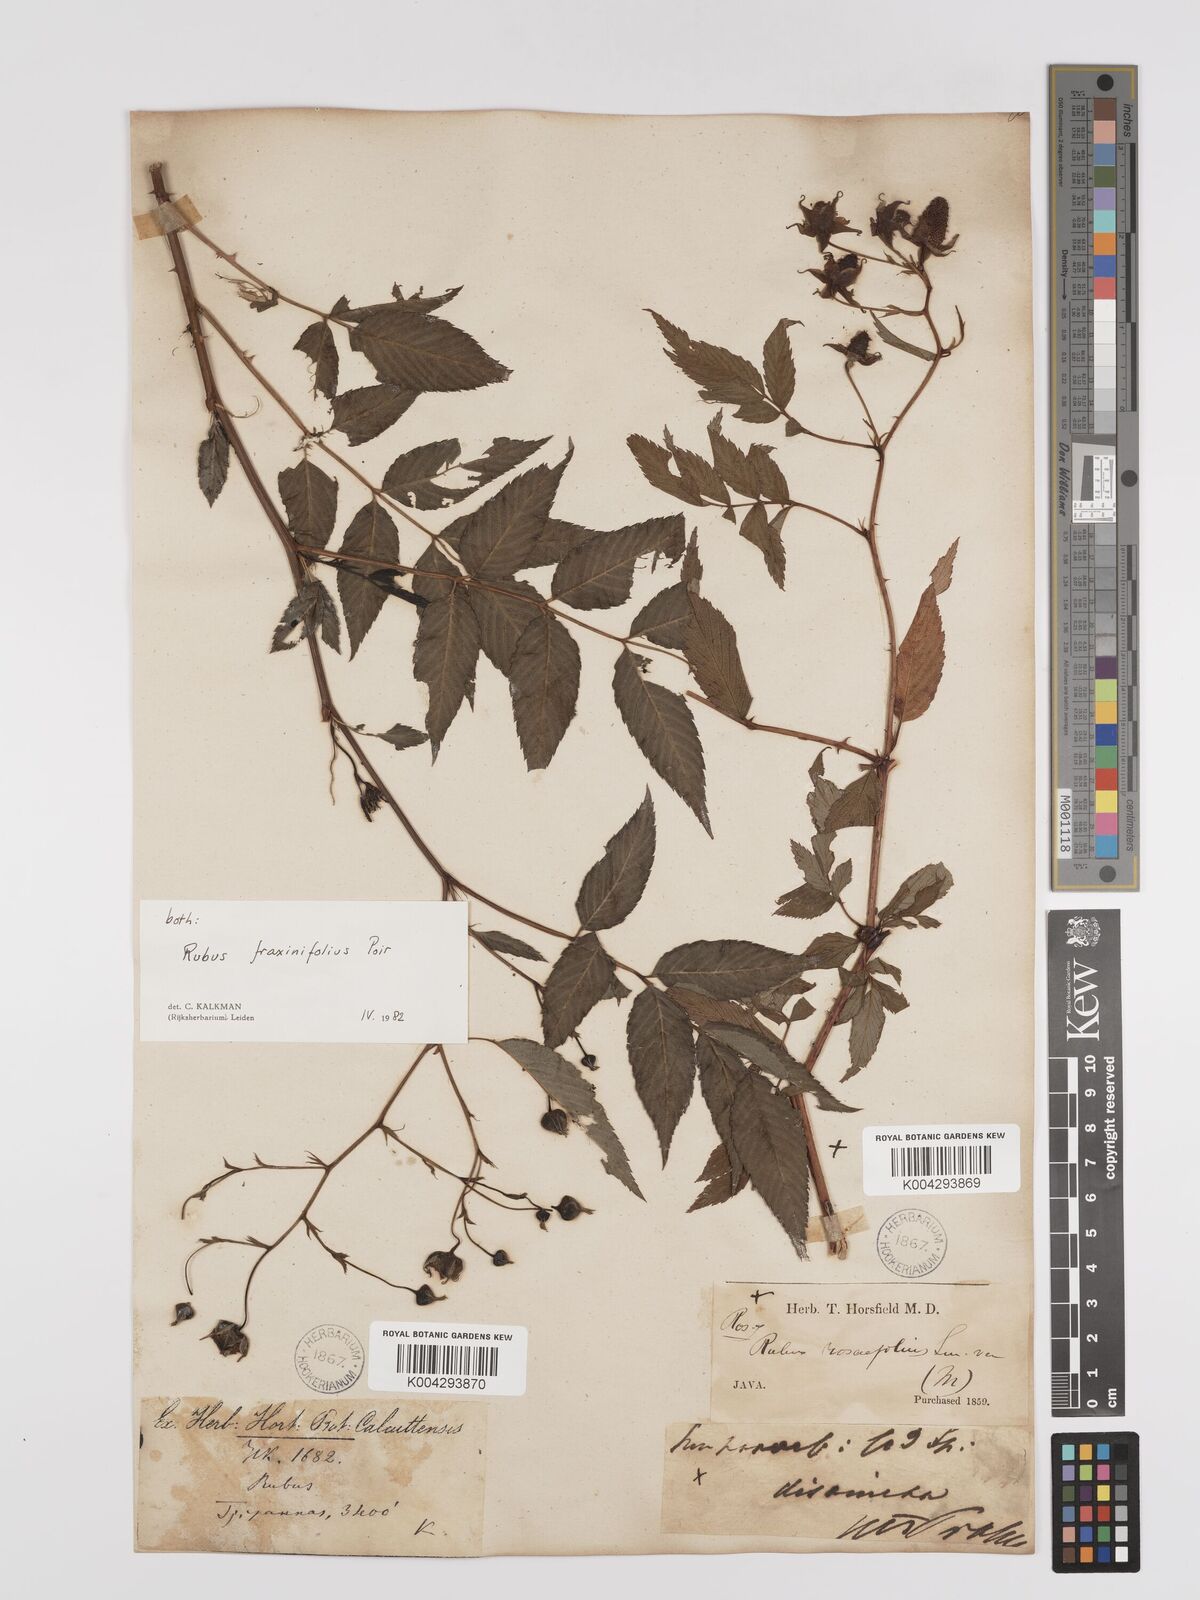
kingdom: Plantae
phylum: Tracheophyta
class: Magnoliopsida
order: Rosales
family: Rosaceae
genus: Rubus
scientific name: Rubus fraxinifolius
